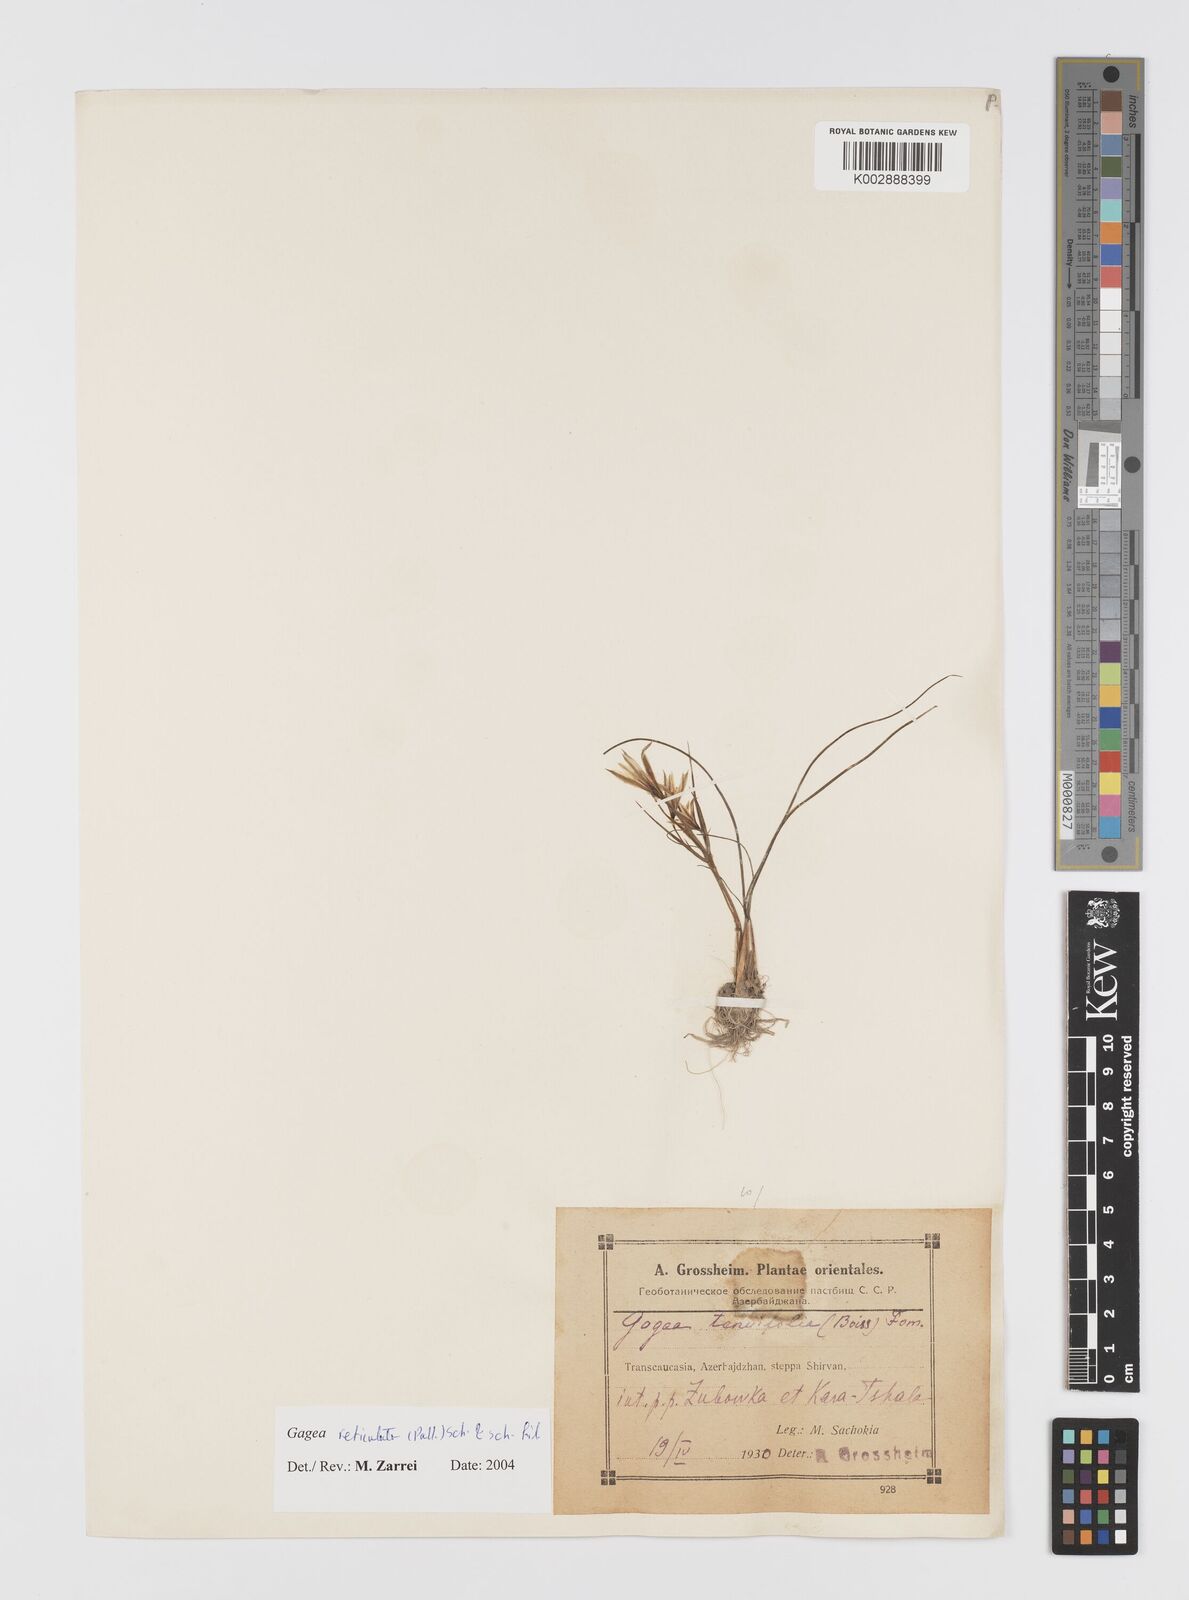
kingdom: Plantae
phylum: Tracheophyta
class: Liliopsida
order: Liliales
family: Liliaceae
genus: Gagea
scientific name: Gagea reticulata
